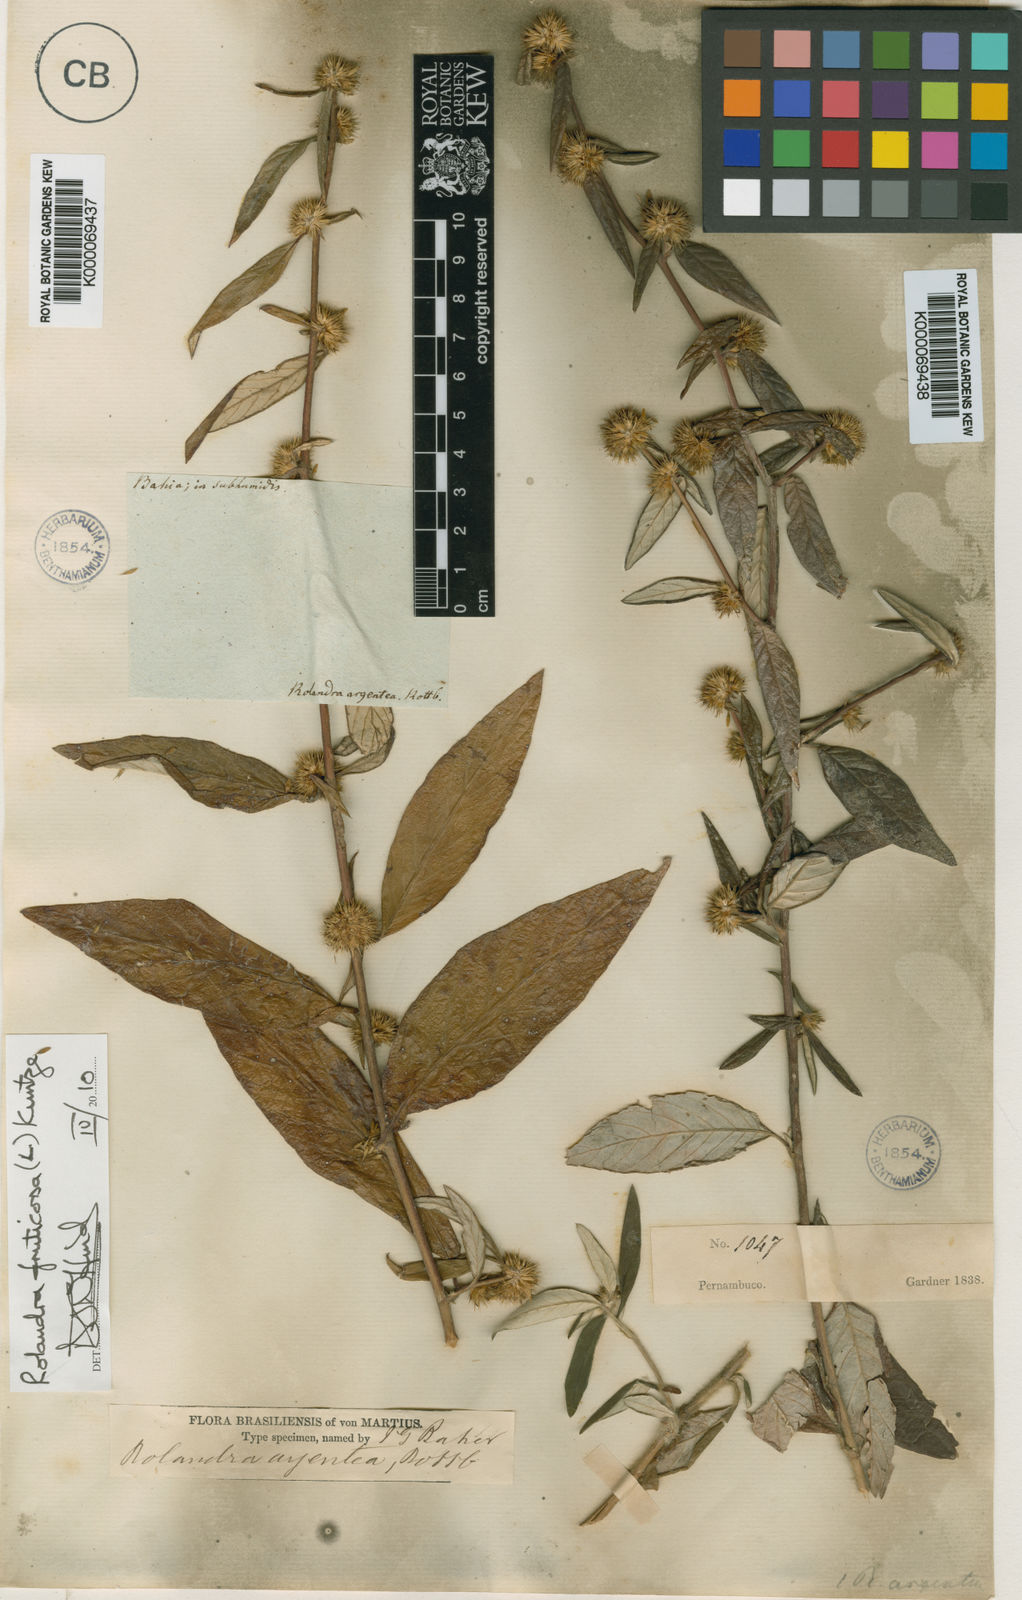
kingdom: Plantae
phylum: Tracheophyta
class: Magnoliopsida
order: Asterales
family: Asteraceae
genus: Rolandra
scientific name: Rolandra fruticosa
